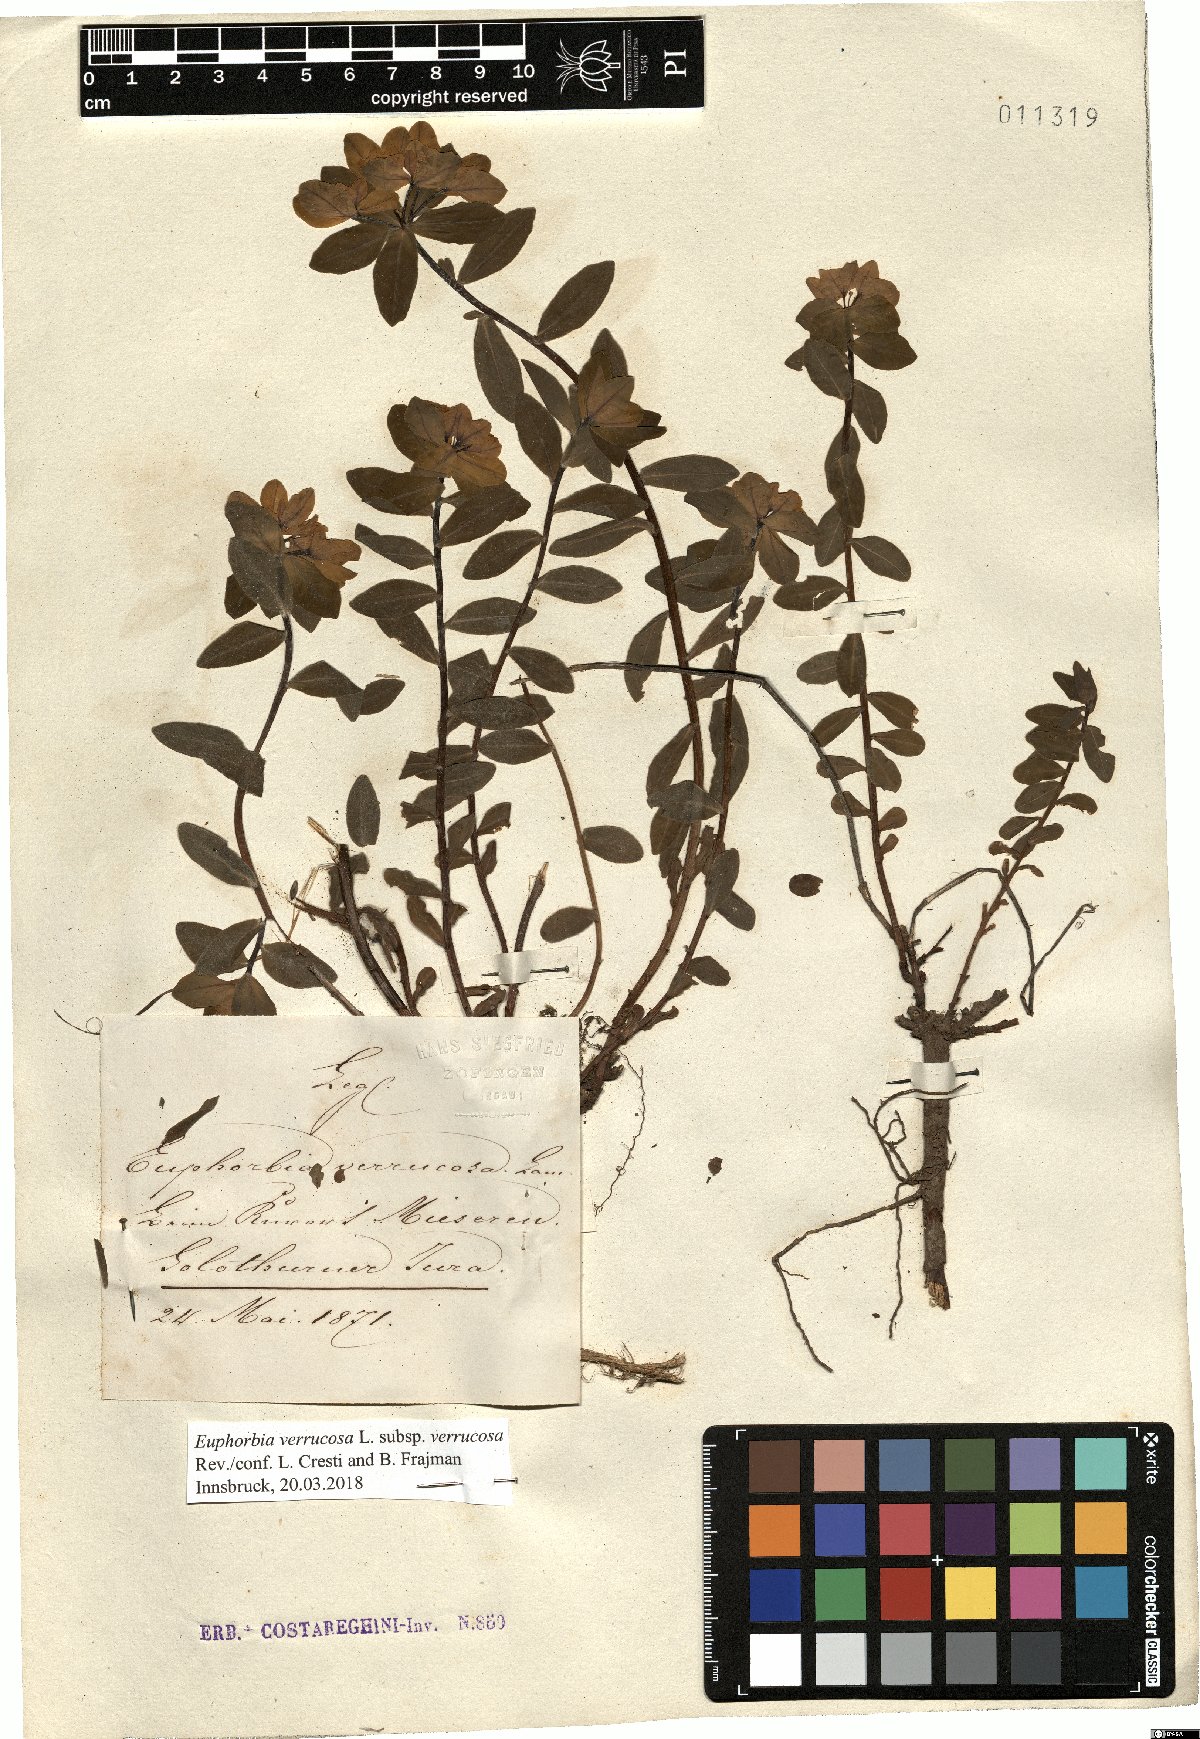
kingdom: Plantae
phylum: Tracheophyta
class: Magnoliopsida
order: Malpighiales
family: Euphorbiaceae
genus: Euphorbia
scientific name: Euphorbia verrucosa
